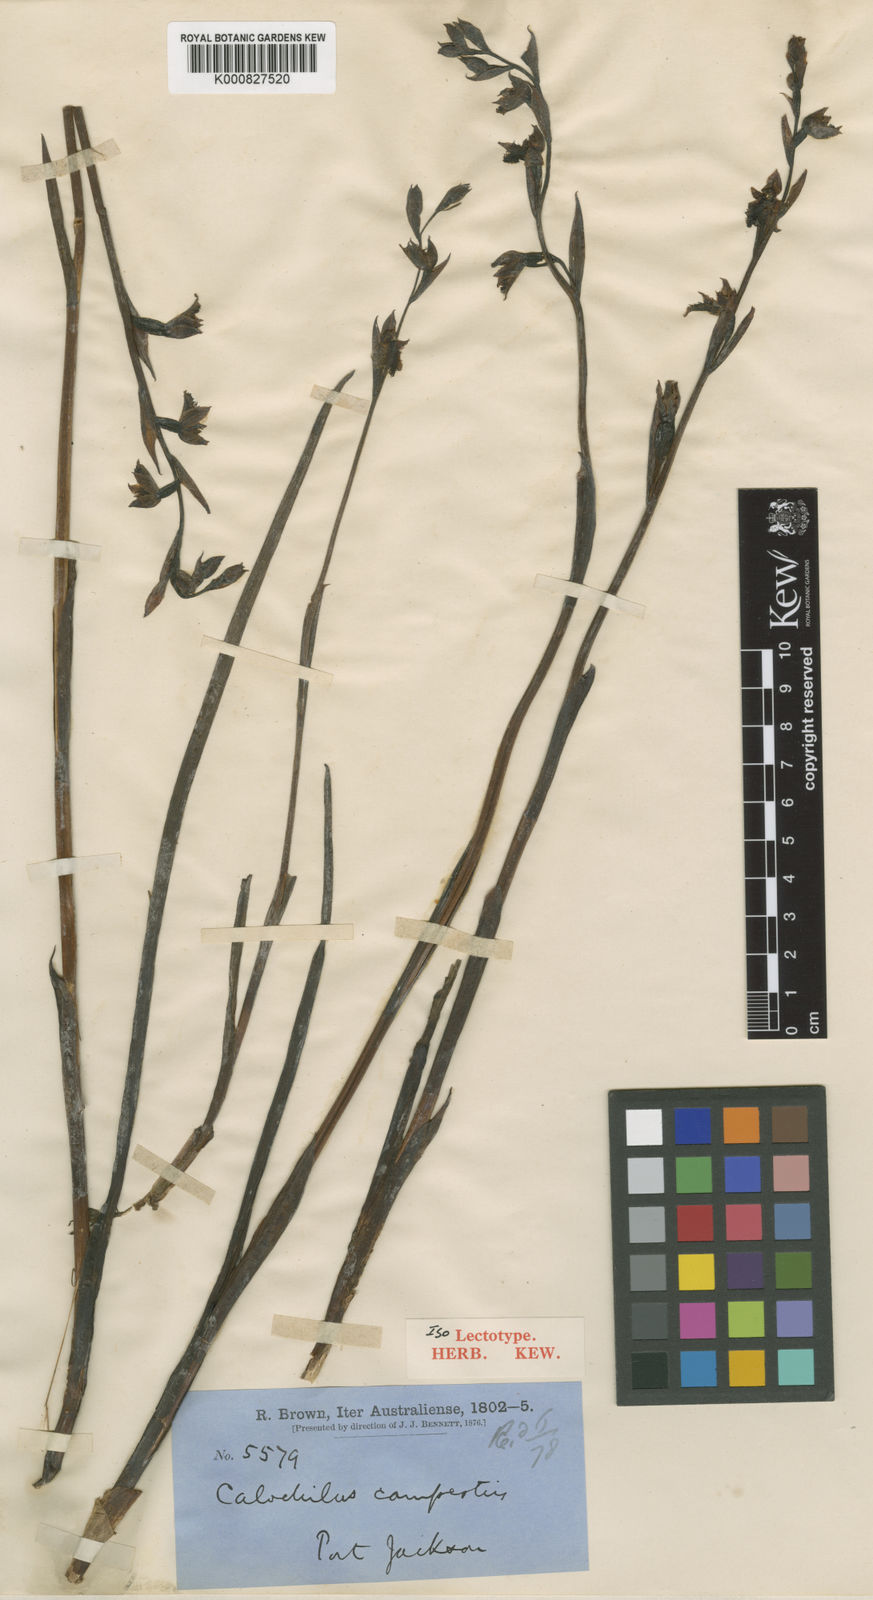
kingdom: Plantae
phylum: Tracheophyta
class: Liliopsida
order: Asparagales
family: Orchidaceae
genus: Calochilus
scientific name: Calochilus campestris
